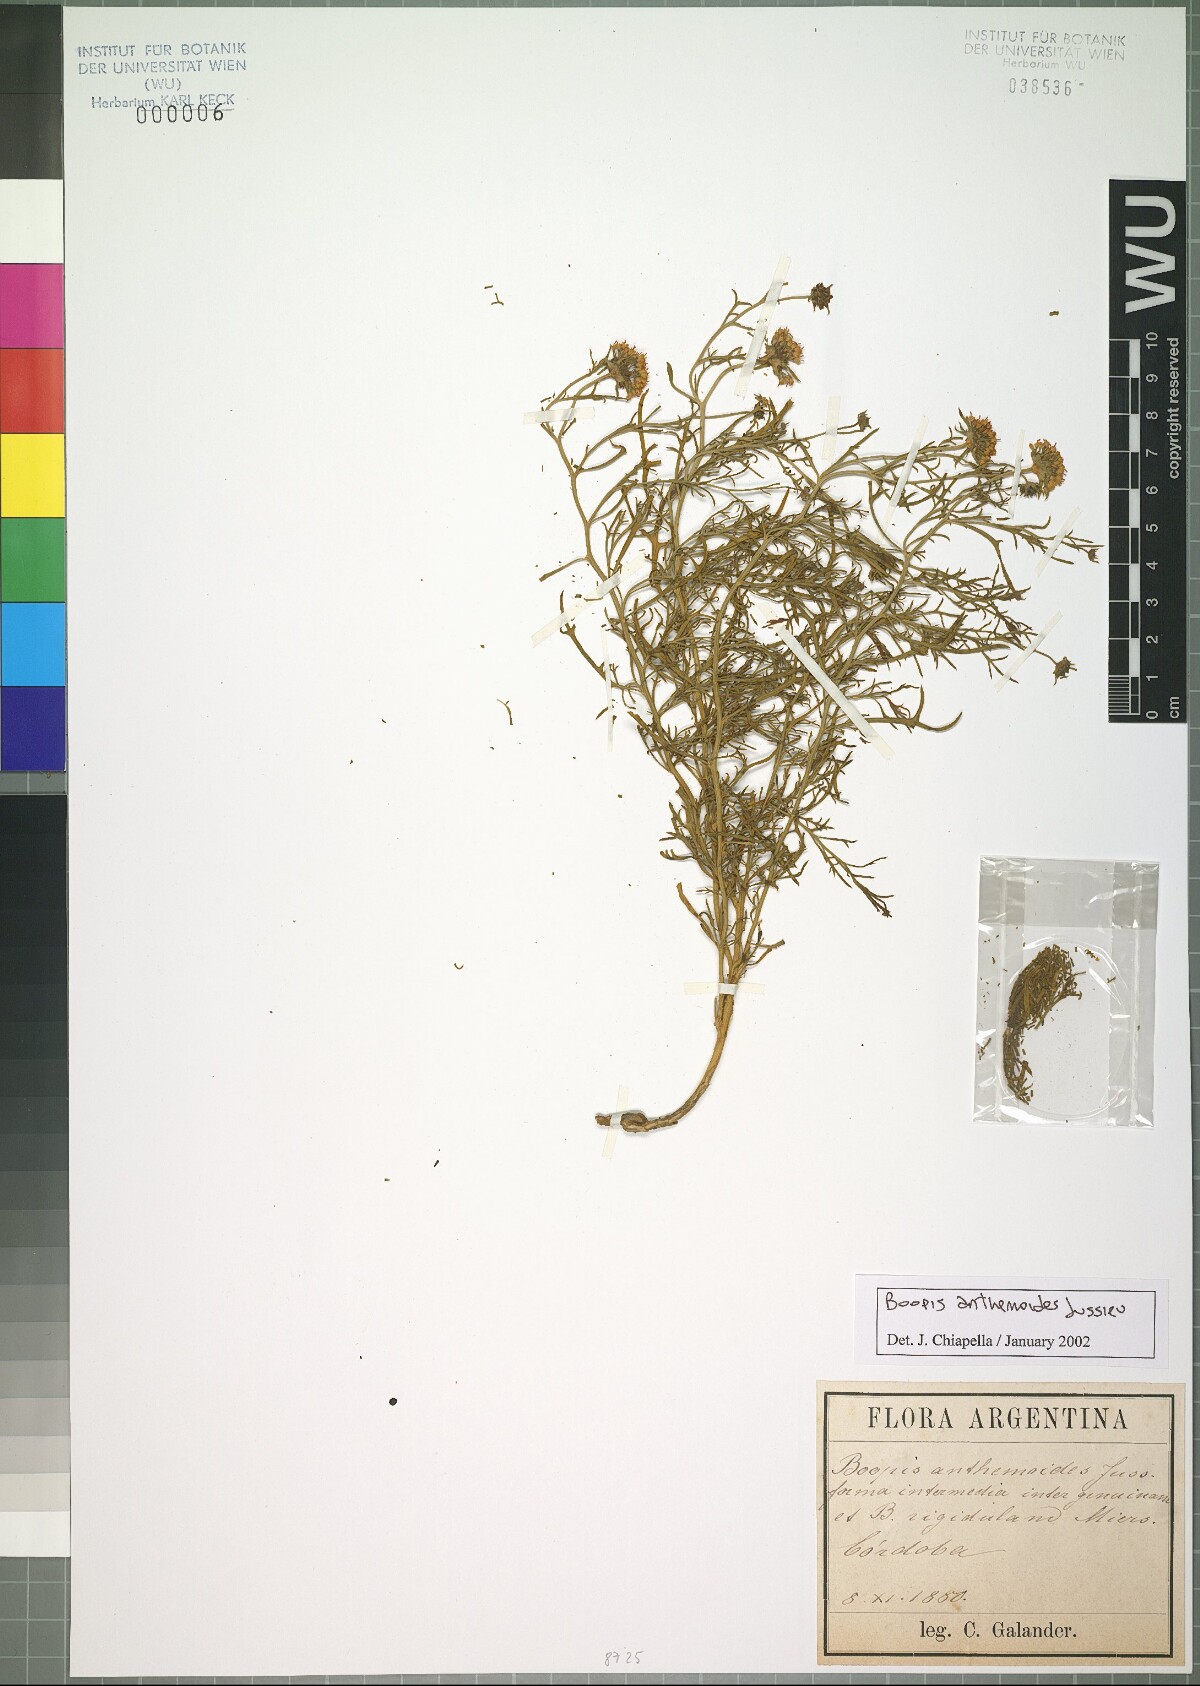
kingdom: Plantae
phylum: Tracheophyta
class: Magnoliopsida
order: Asterales
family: Calyceraceae
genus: Boopis
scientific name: Boopis anthemoides
